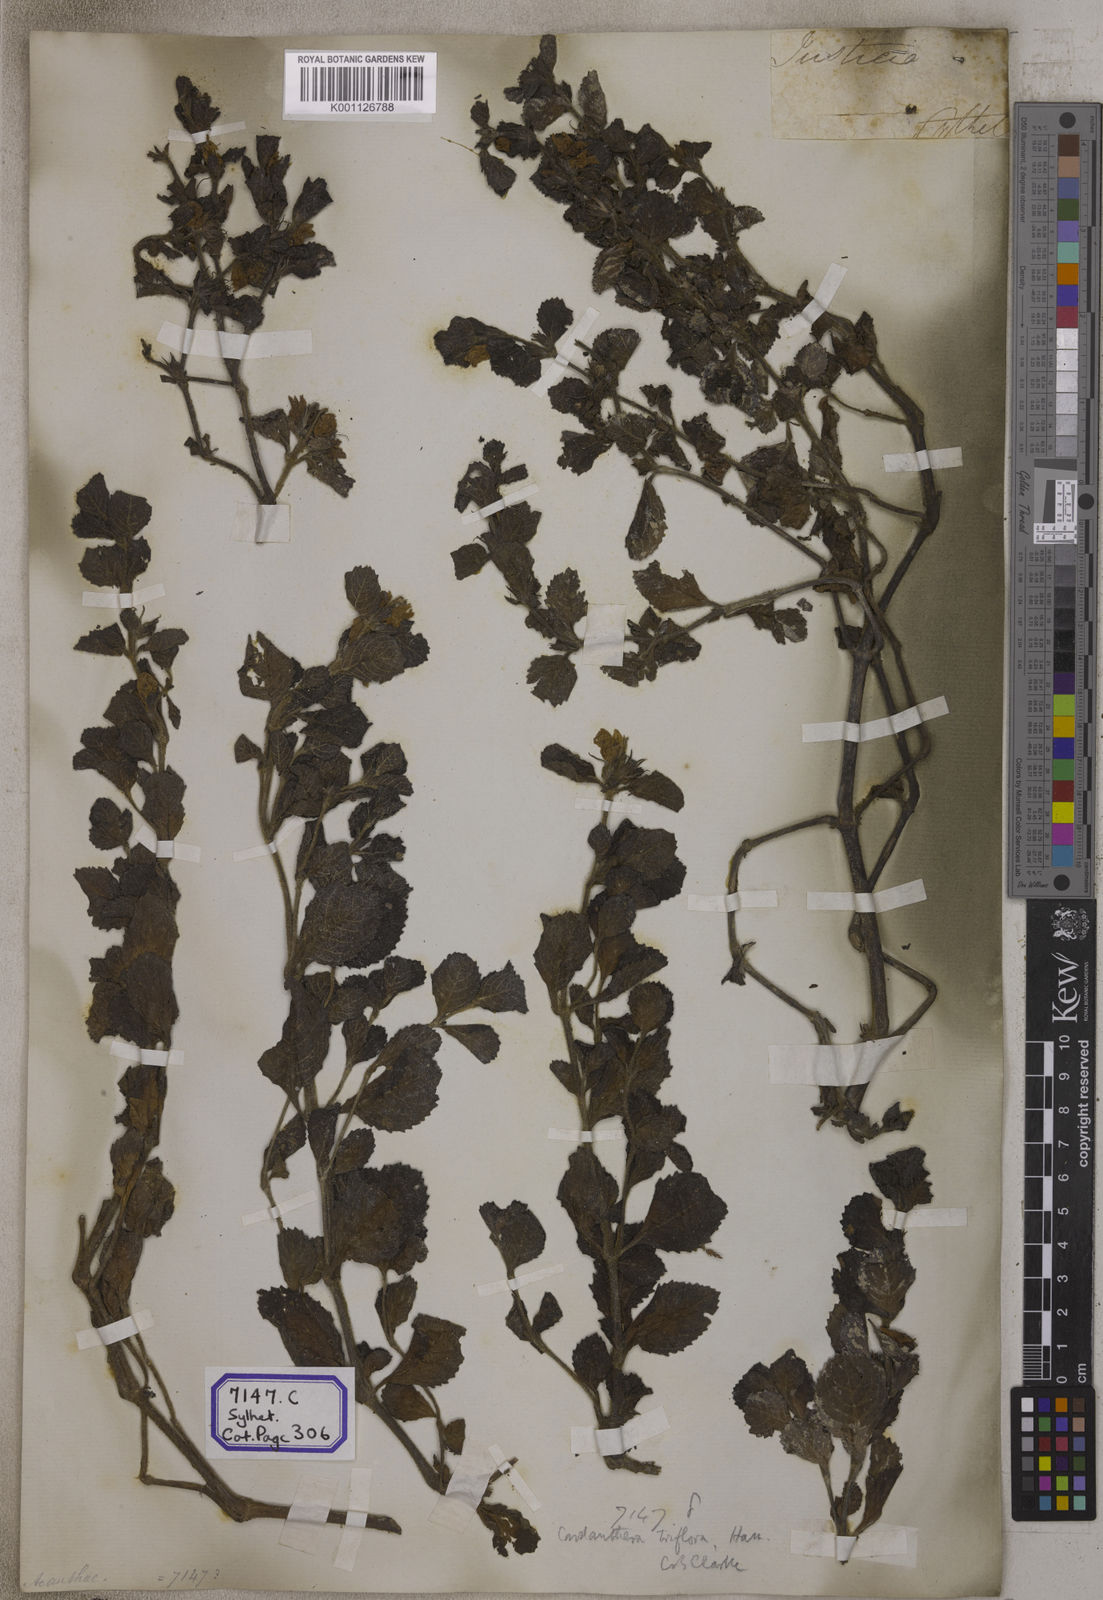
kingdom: Plantae
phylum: Tracheophyta
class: Magnoliopsida
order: Lamiales
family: Plantaginaceae
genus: Adenosma
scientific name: Adenosma
